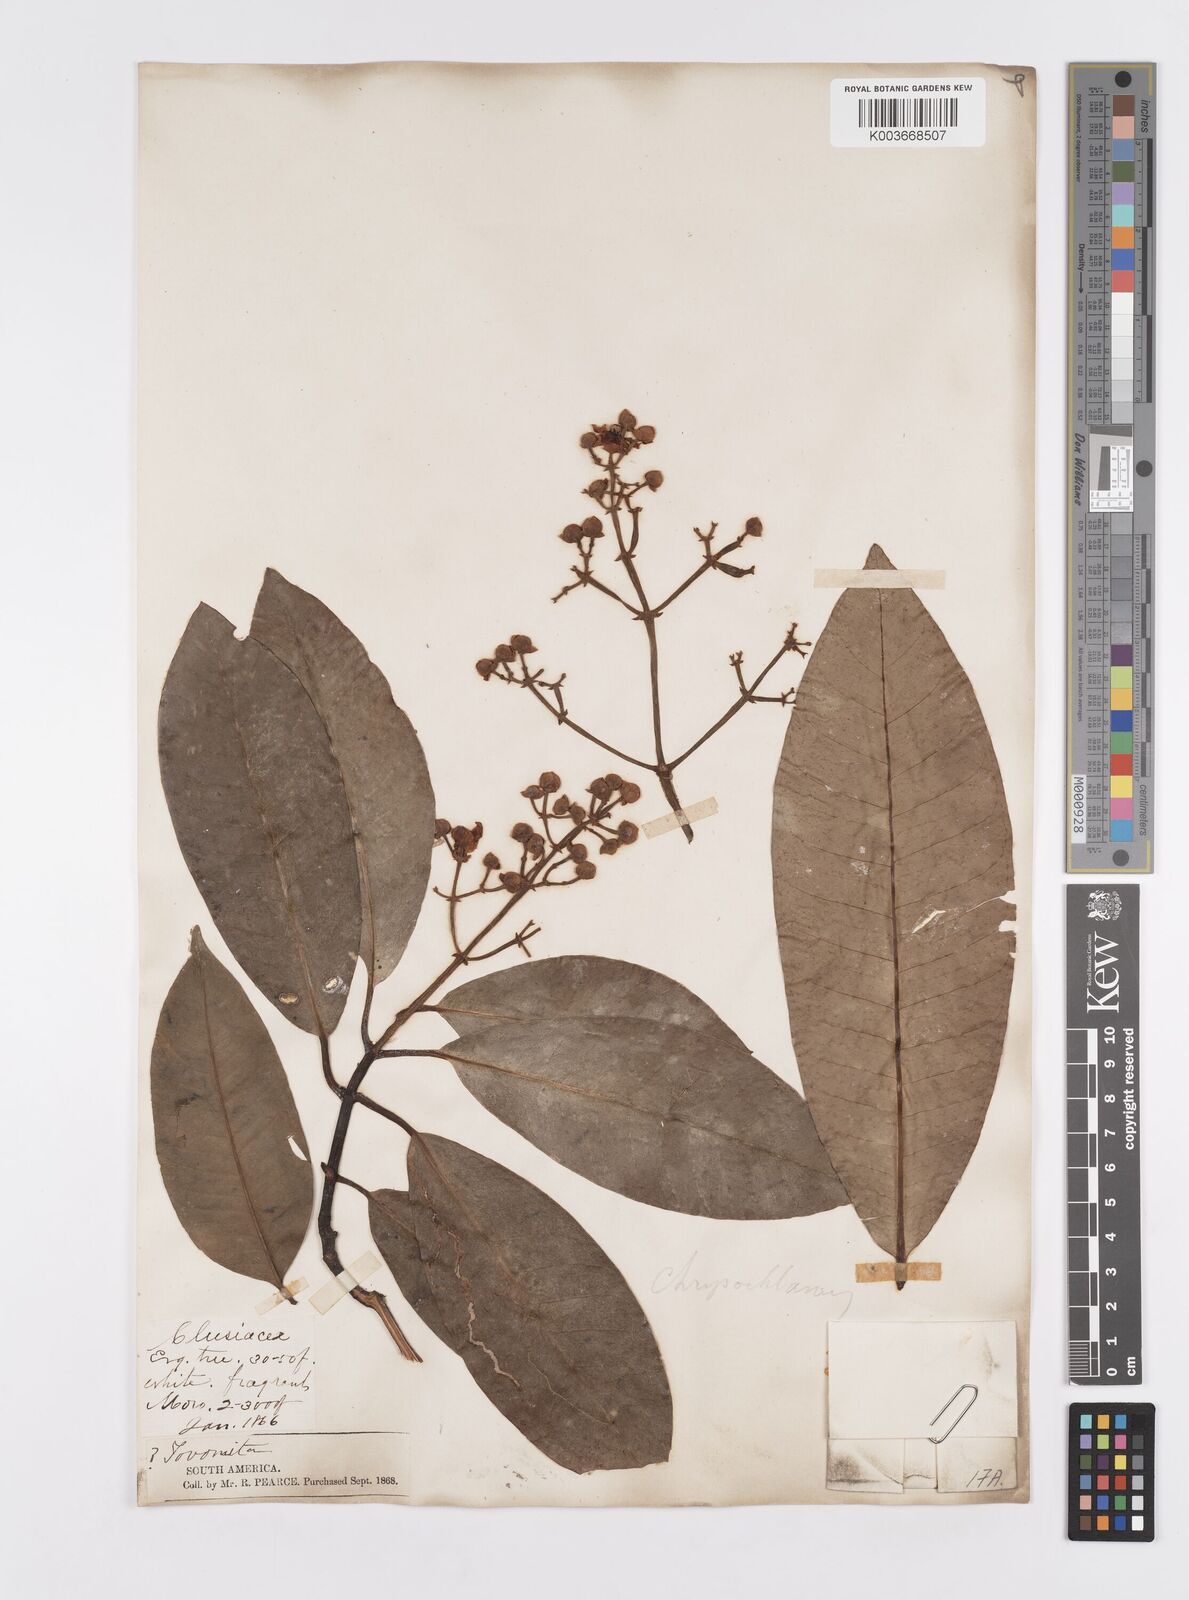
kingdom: Plantae
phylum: Tracheophyta
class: Magnoliopsida
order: Malpighiales
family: Clusiaceae
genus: Chrysochlamys
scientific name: Chrysochlamys
